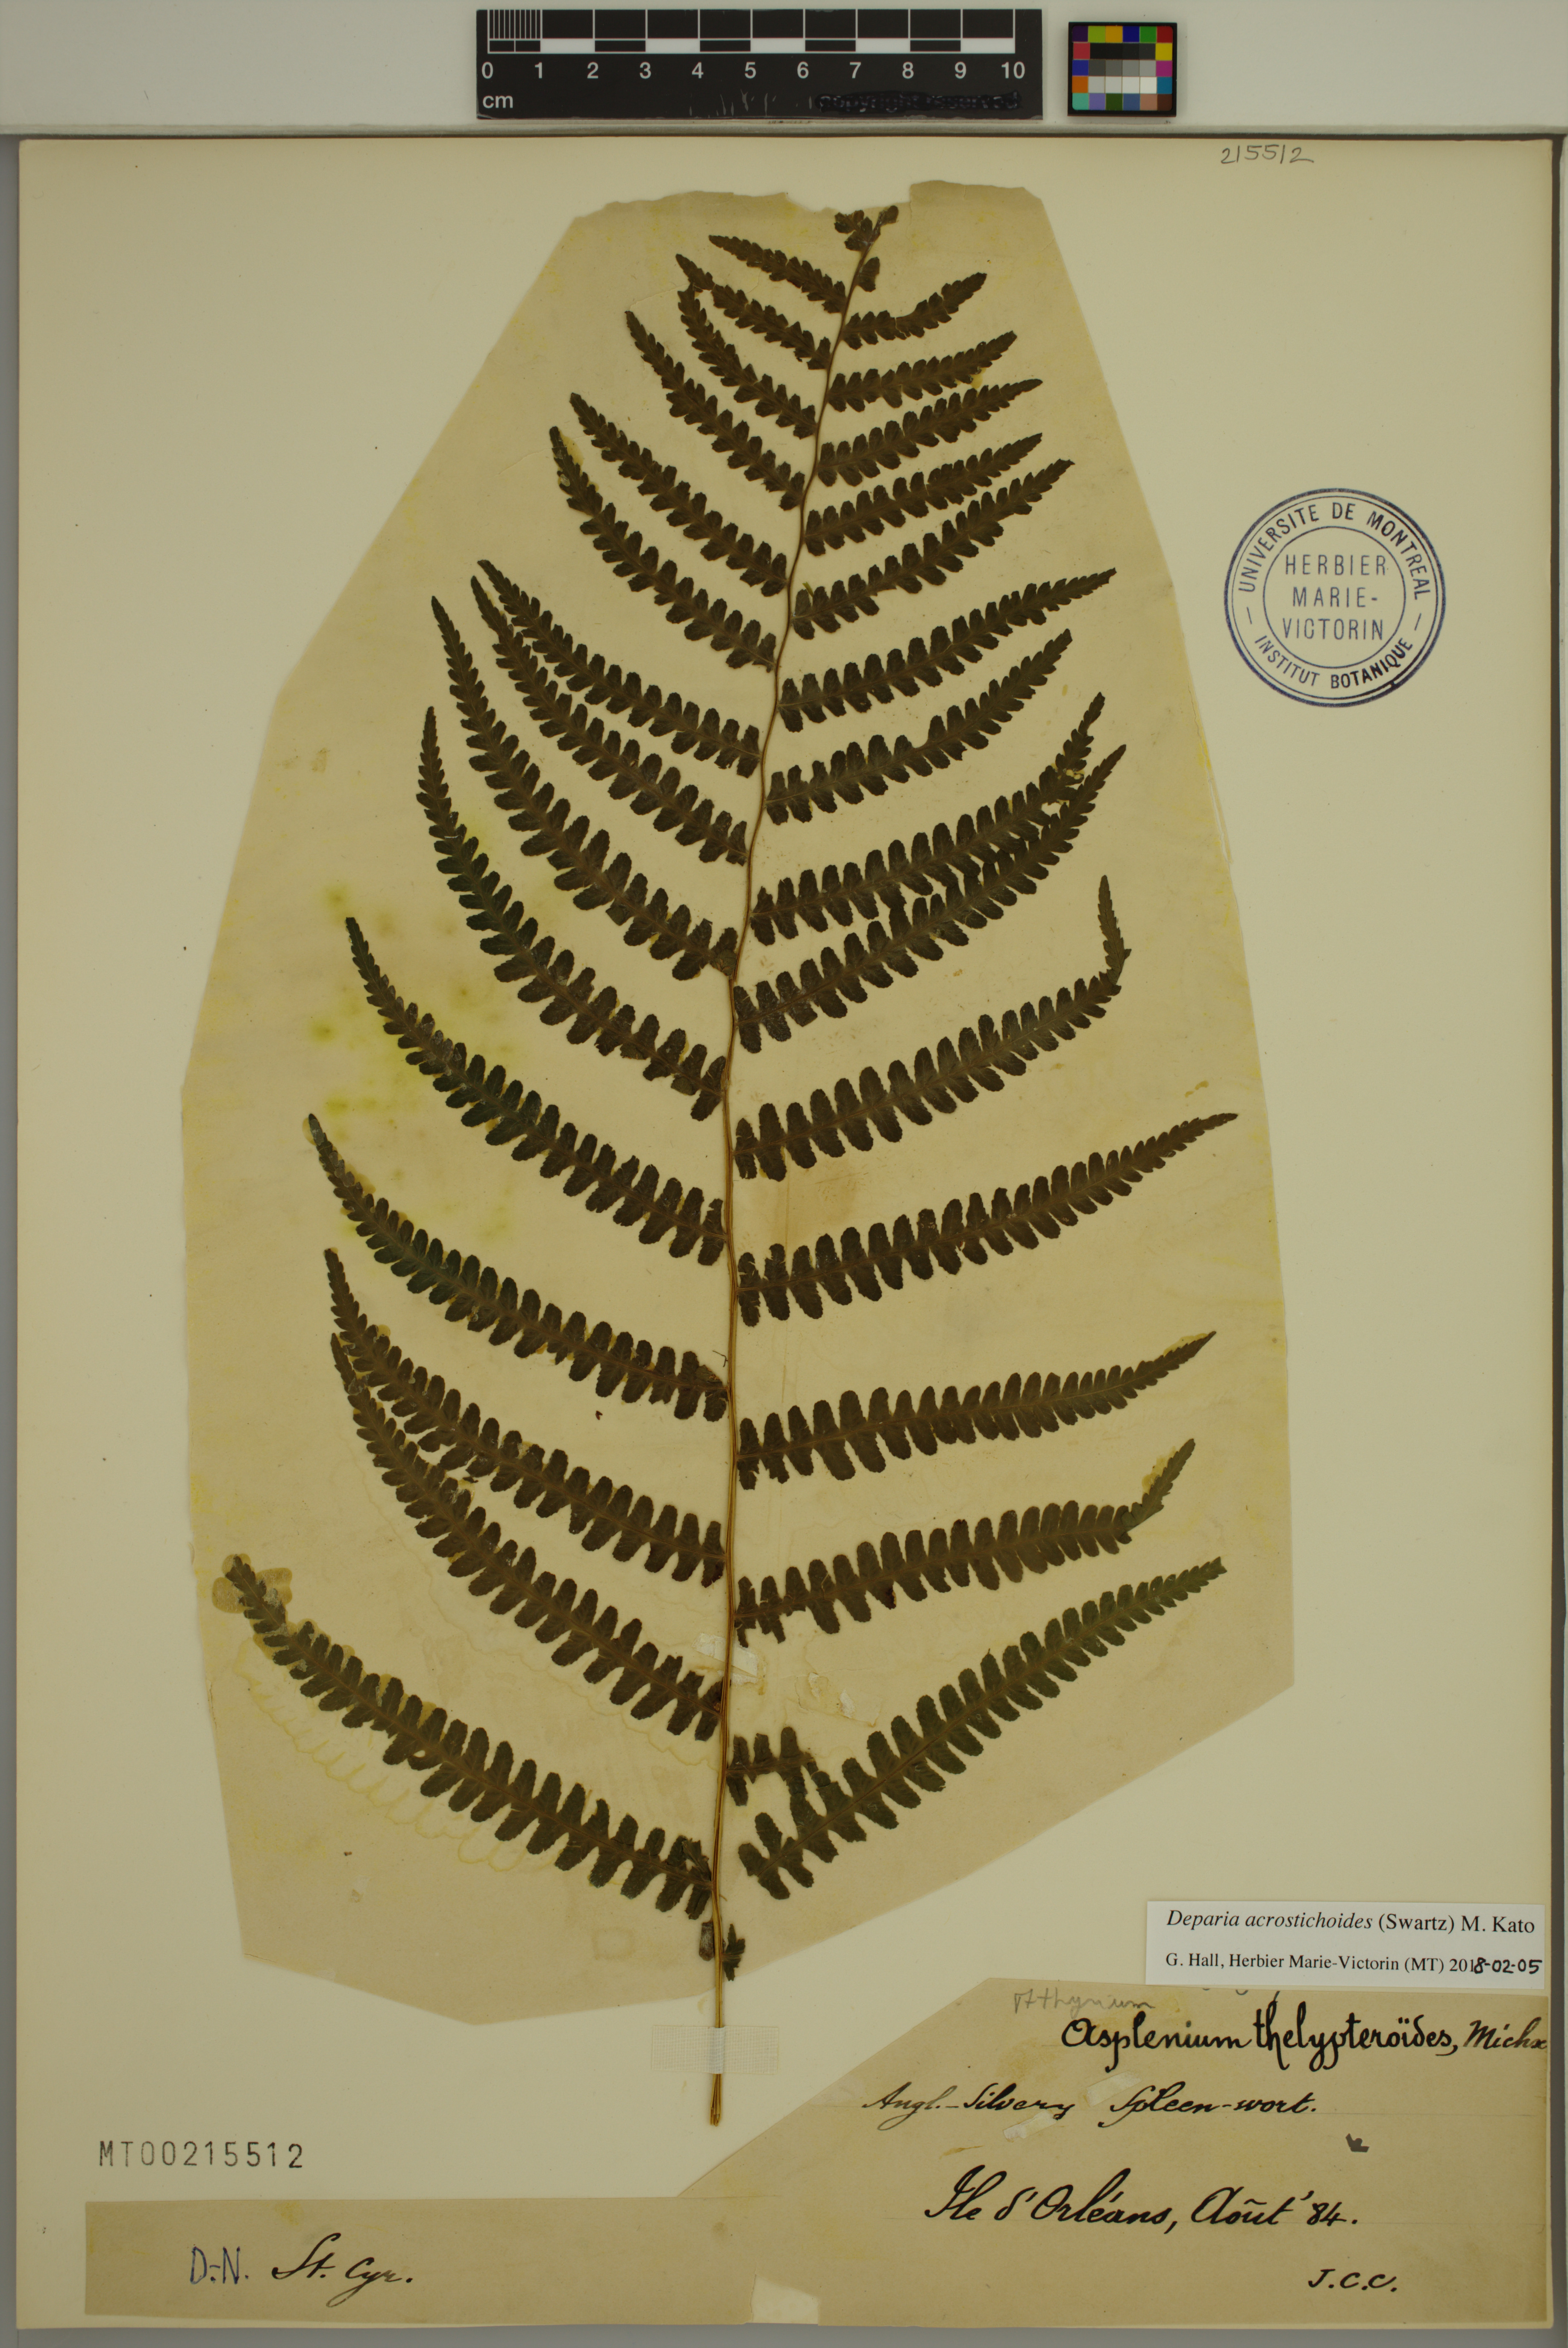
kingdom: Plantae
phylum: Tracheophyta
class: Polypodiopsida
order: Polypodiales
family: Athyriaceae
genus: Deparia
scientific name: Deparia acrostichoides
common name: Silver false spleenwort
